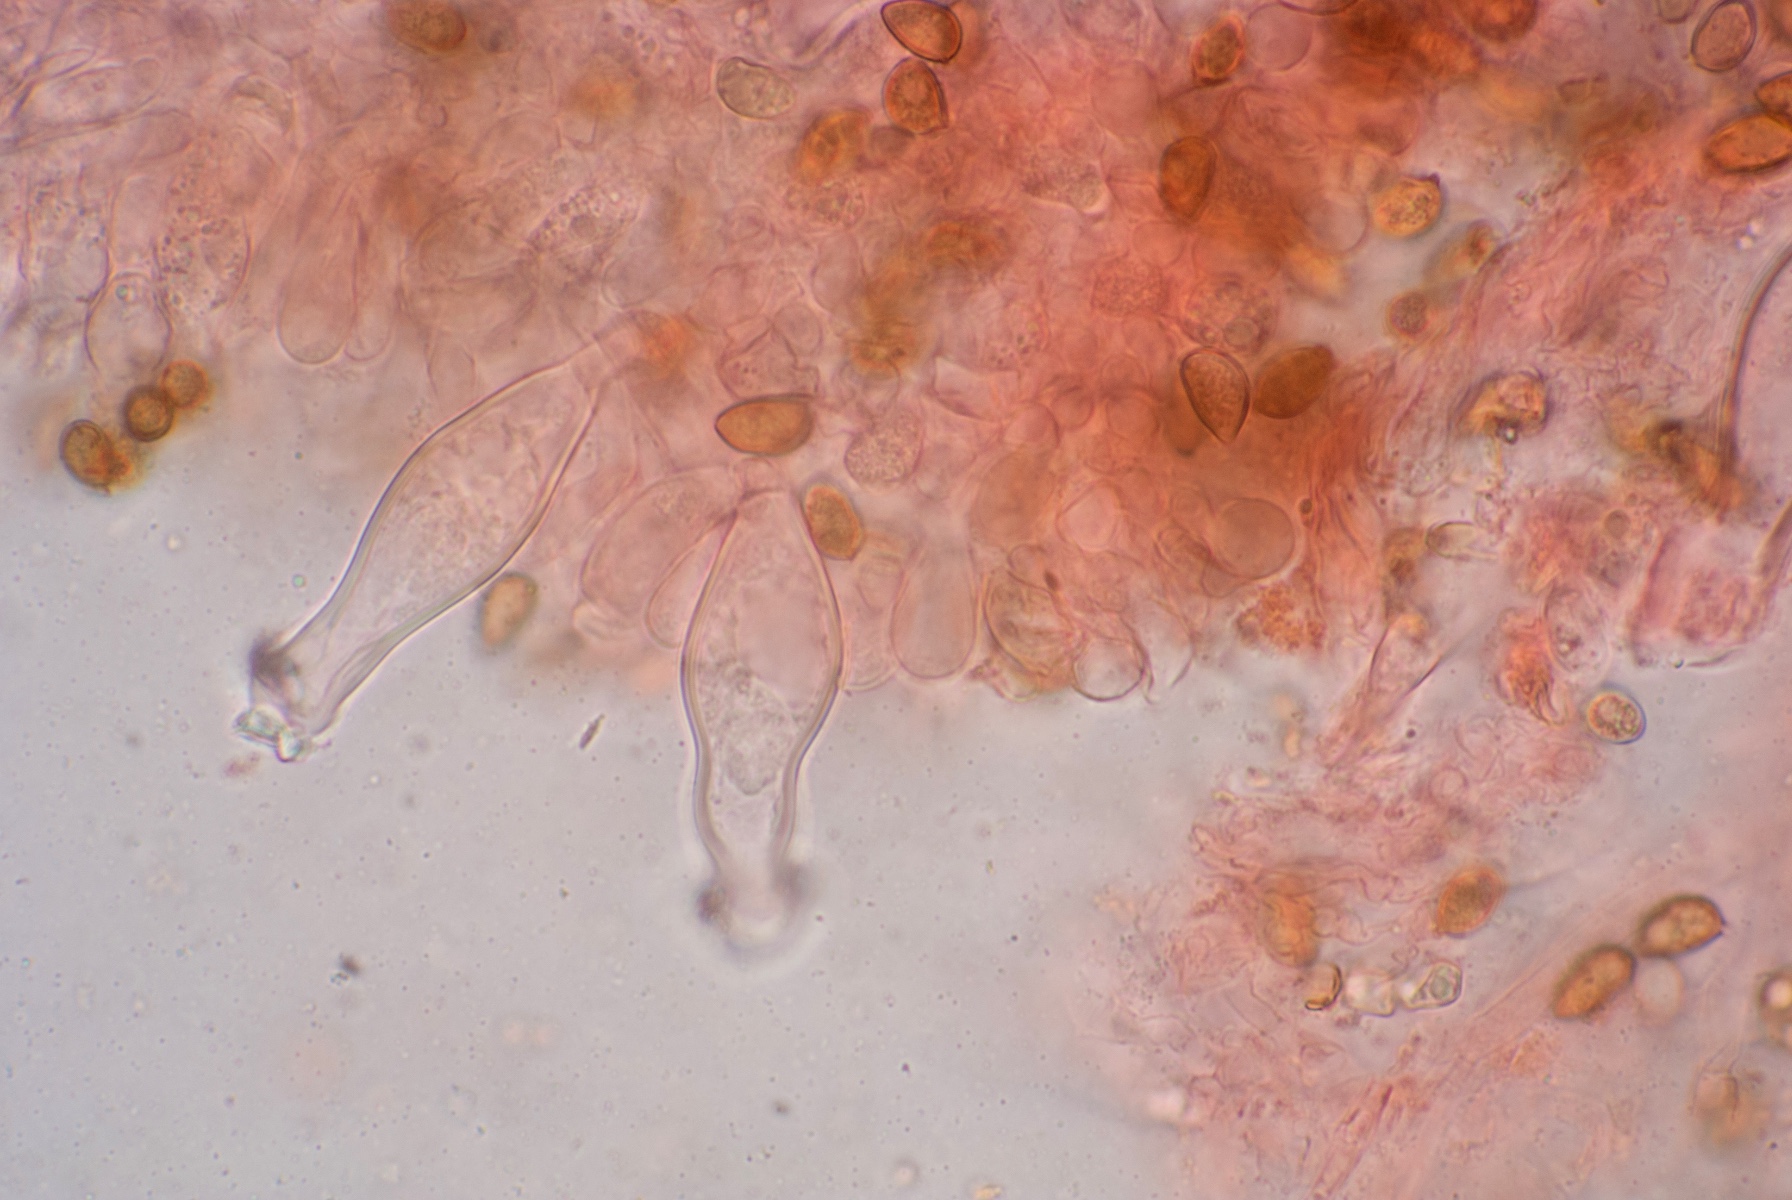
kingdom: Fungi
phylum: Basidiomycota
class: Agaricomycetes
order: Agaricales
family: Inocybaceae
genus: Inocybe
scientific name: Inocybe griseolilacina
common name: lillagrå trævlhat
